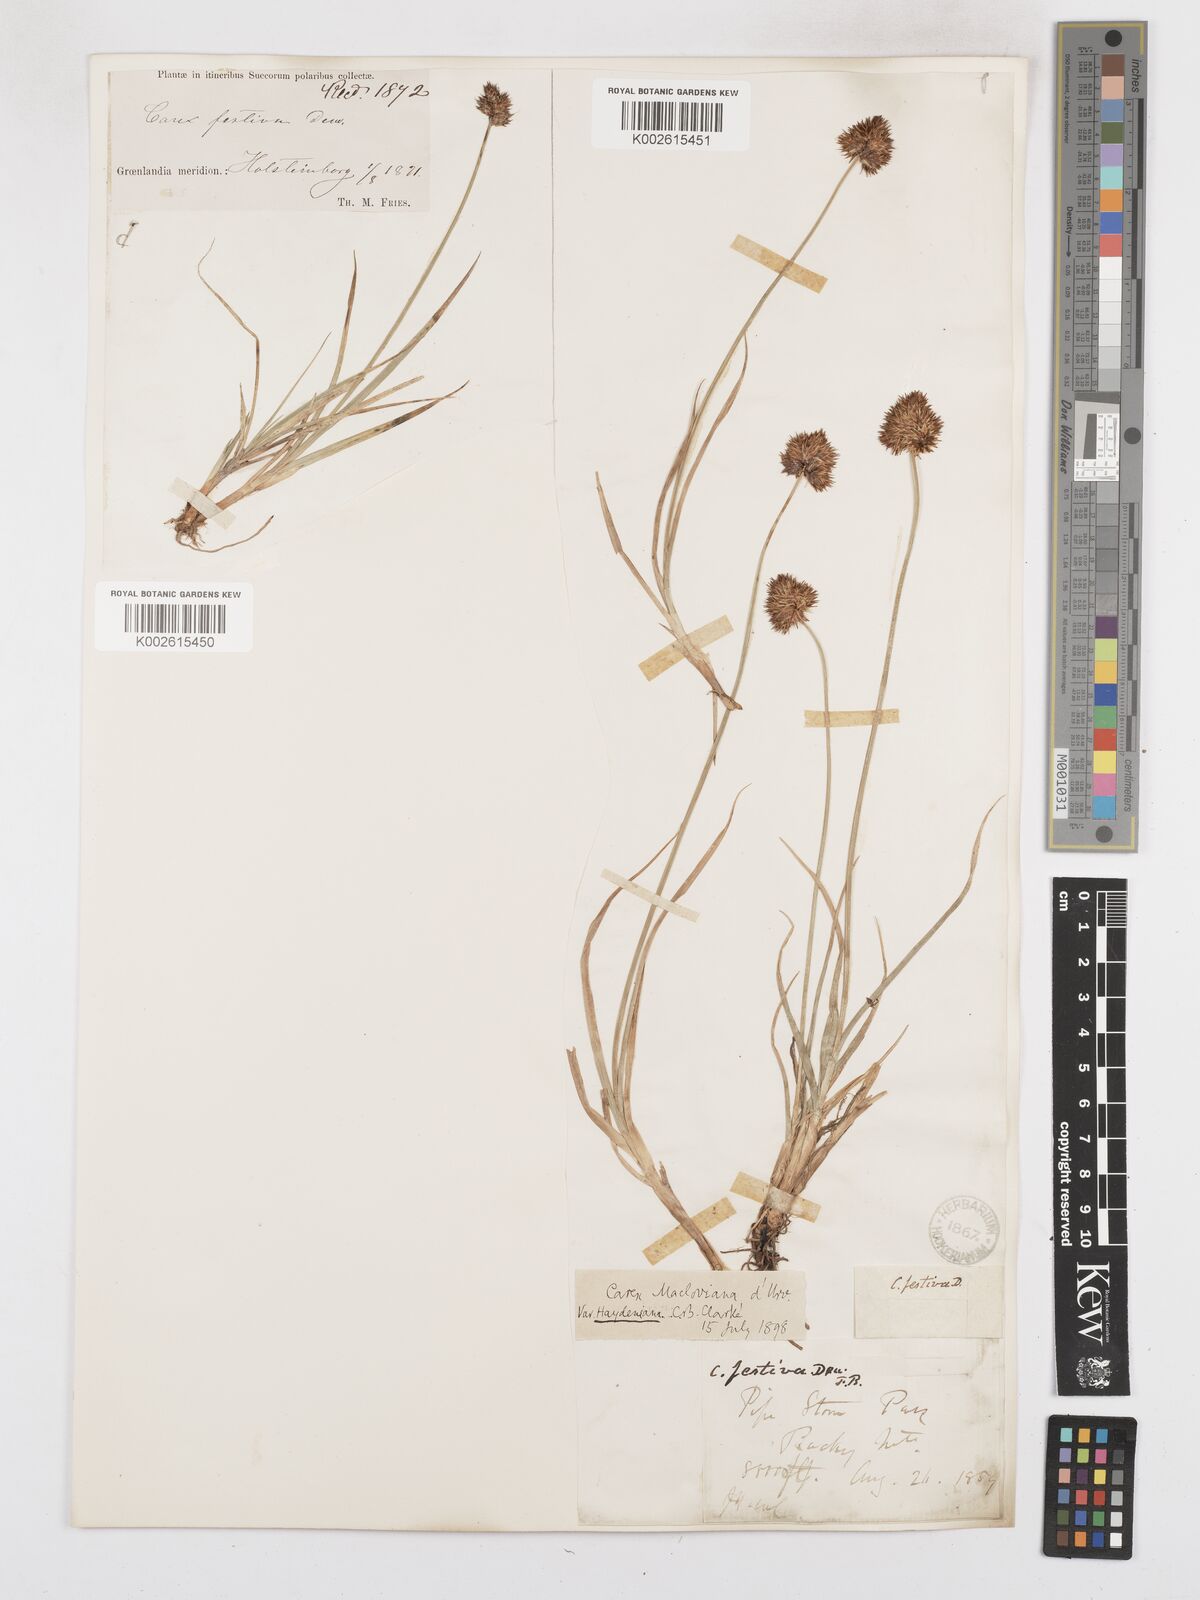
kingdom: Plantae
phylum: Tracheophyta
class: Liliopsida
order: Poales
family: Cyperaceae
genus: Carex
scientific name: Carex mackenziana
